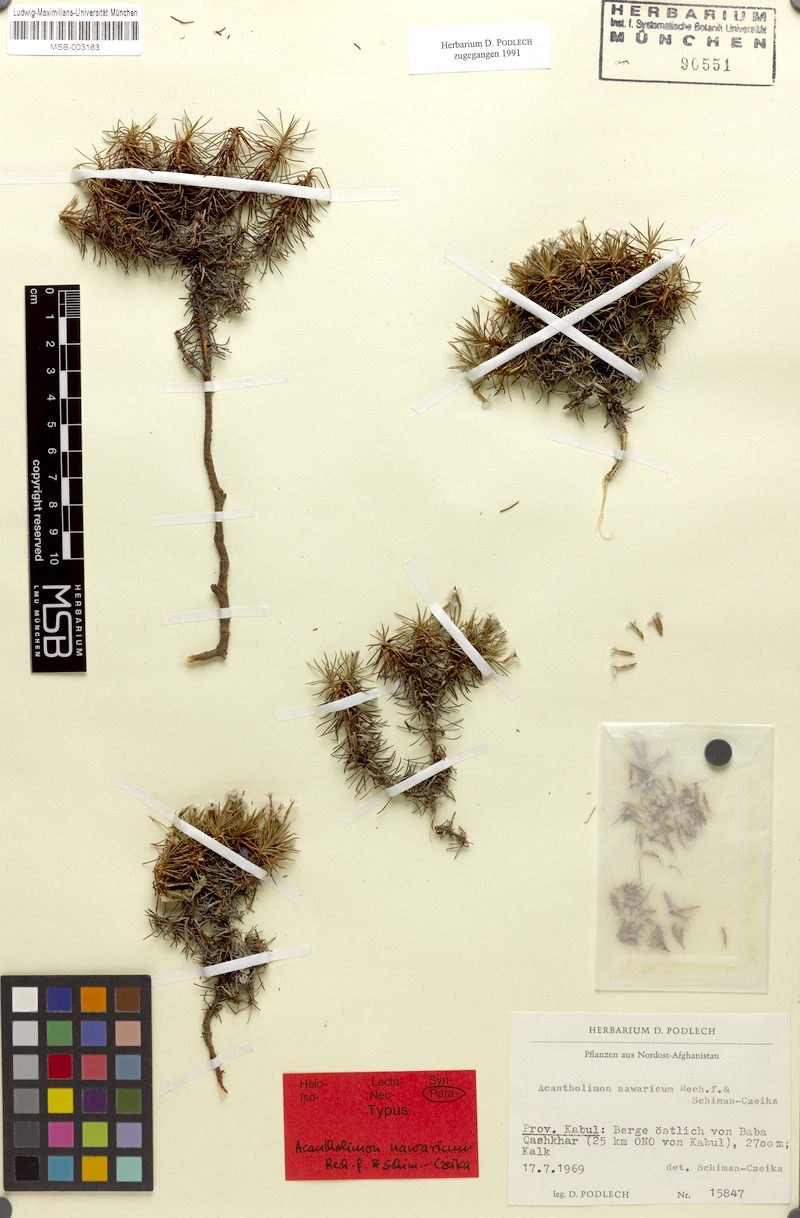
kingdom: Plantae
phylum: Tracheophyta
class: Magnoliopsida
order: Caryophyllales
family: Plumbaginaceae
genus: Acantholimon
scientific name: Acantholimon nawaricum
